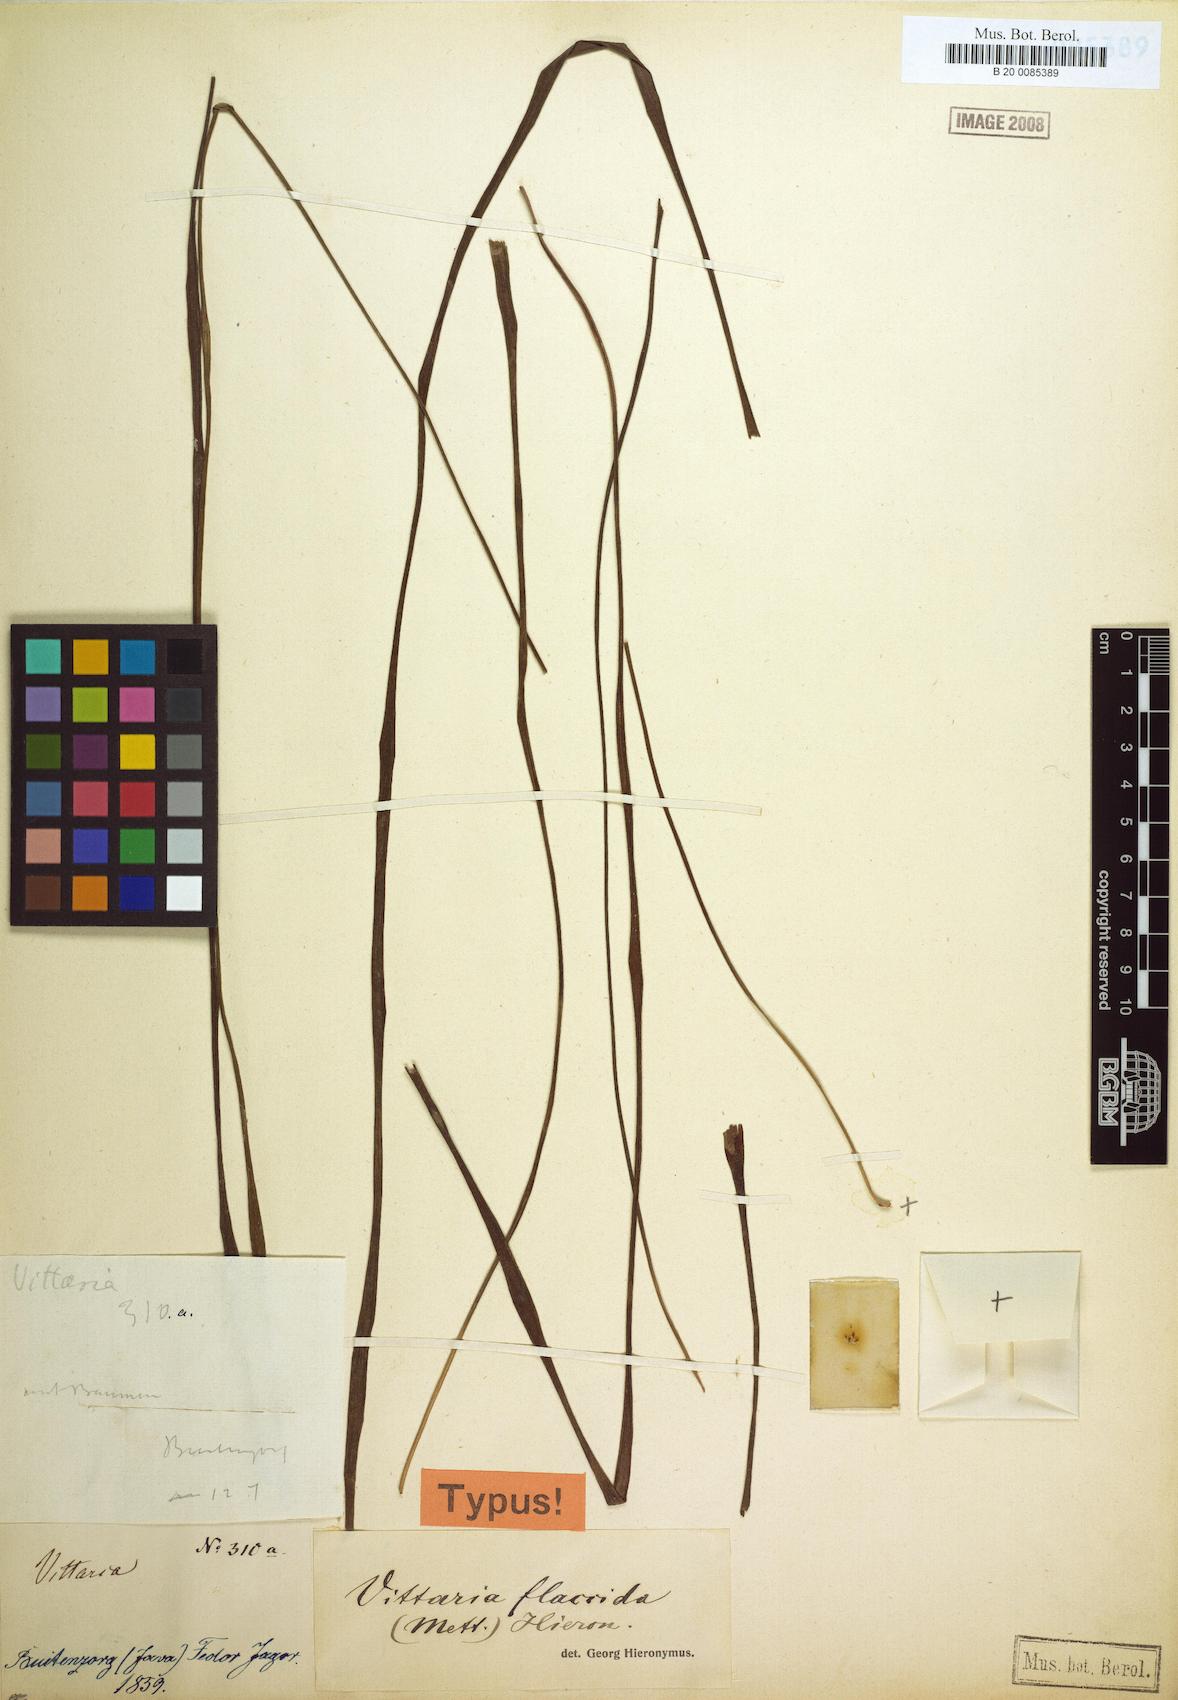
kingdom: Plantae
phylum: Tracheophyta
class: Polypodiopsida
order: Polypodiales
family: Pteridaceae
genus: Haplopteris
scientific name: Haplopteris elongata
